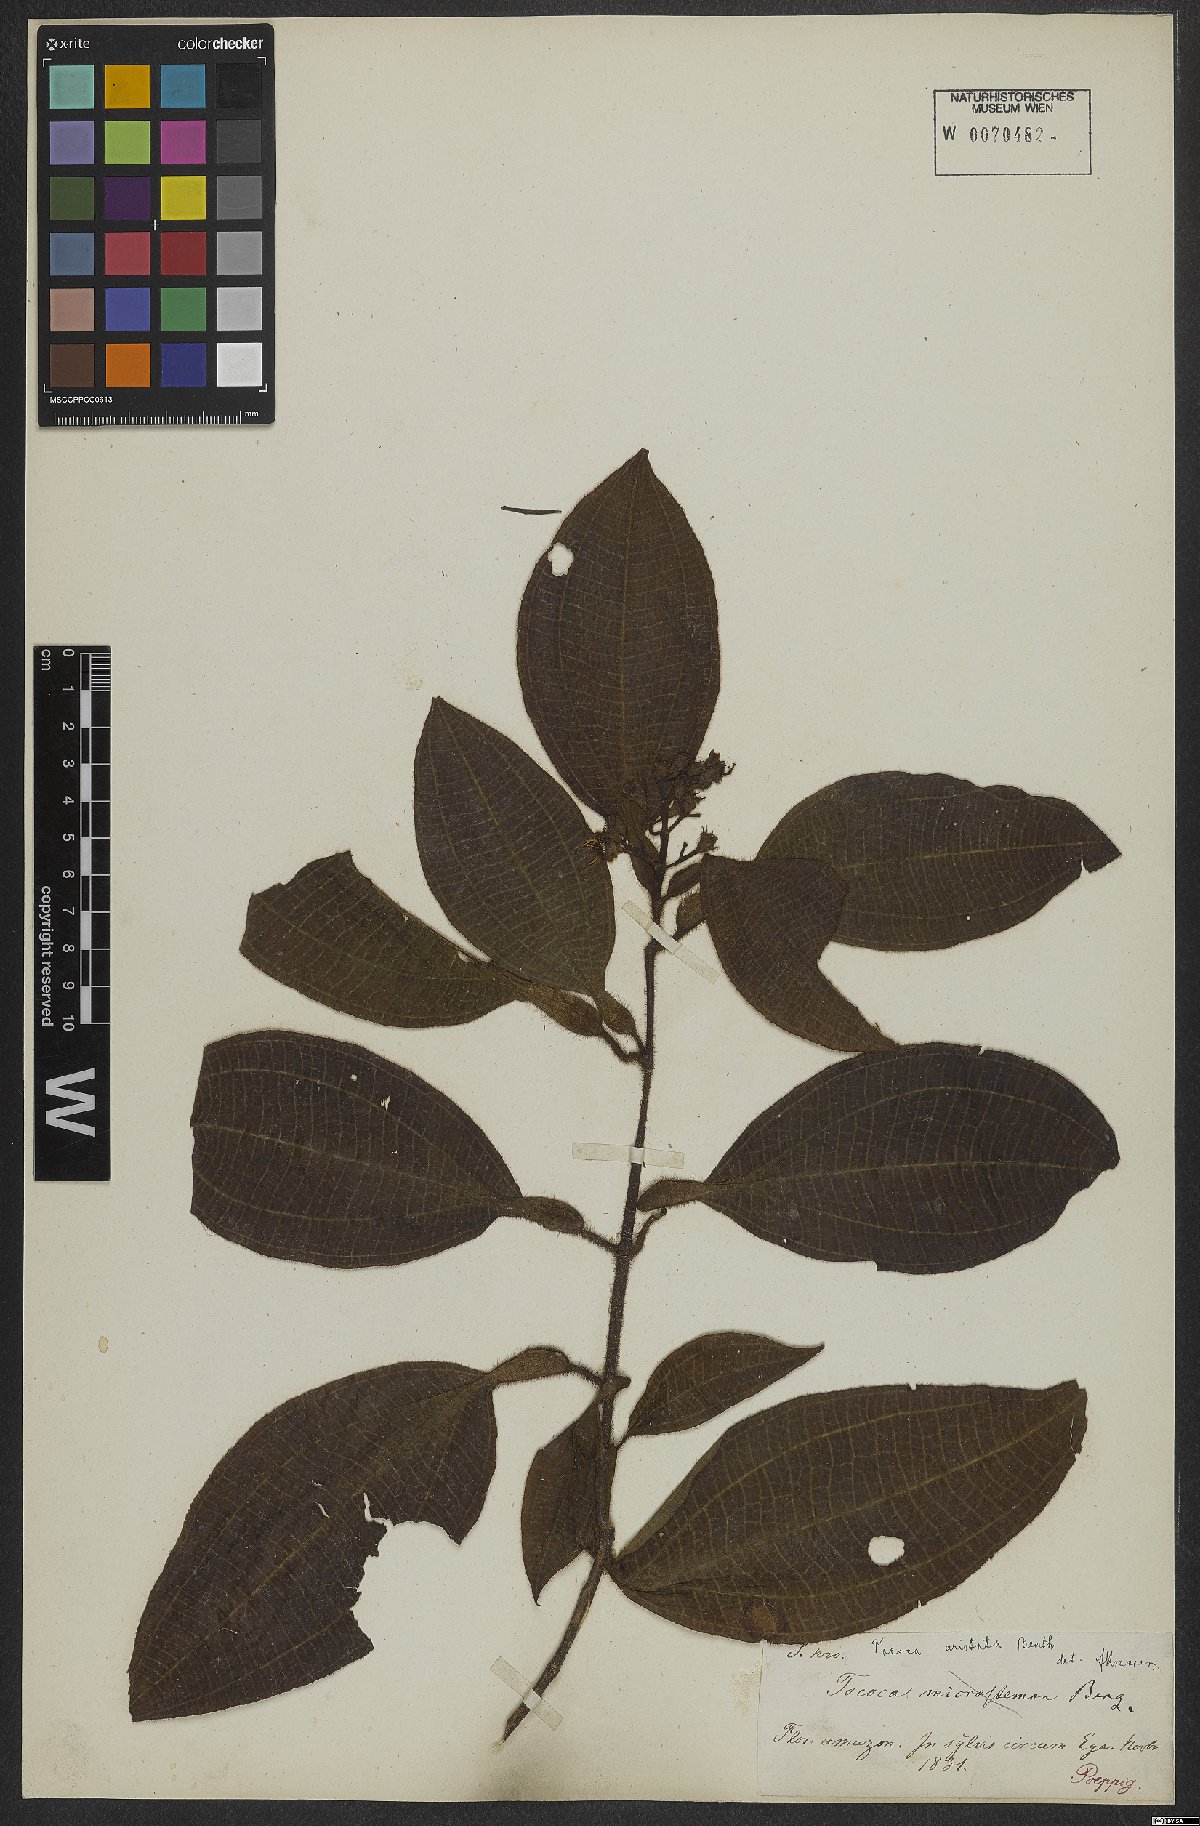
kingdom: Plantae
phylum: Tracheophyta
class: Magnoliopsida
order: Myrtales
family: Melastomataceae
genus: Miconia
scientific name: Miconia tocoaristata
